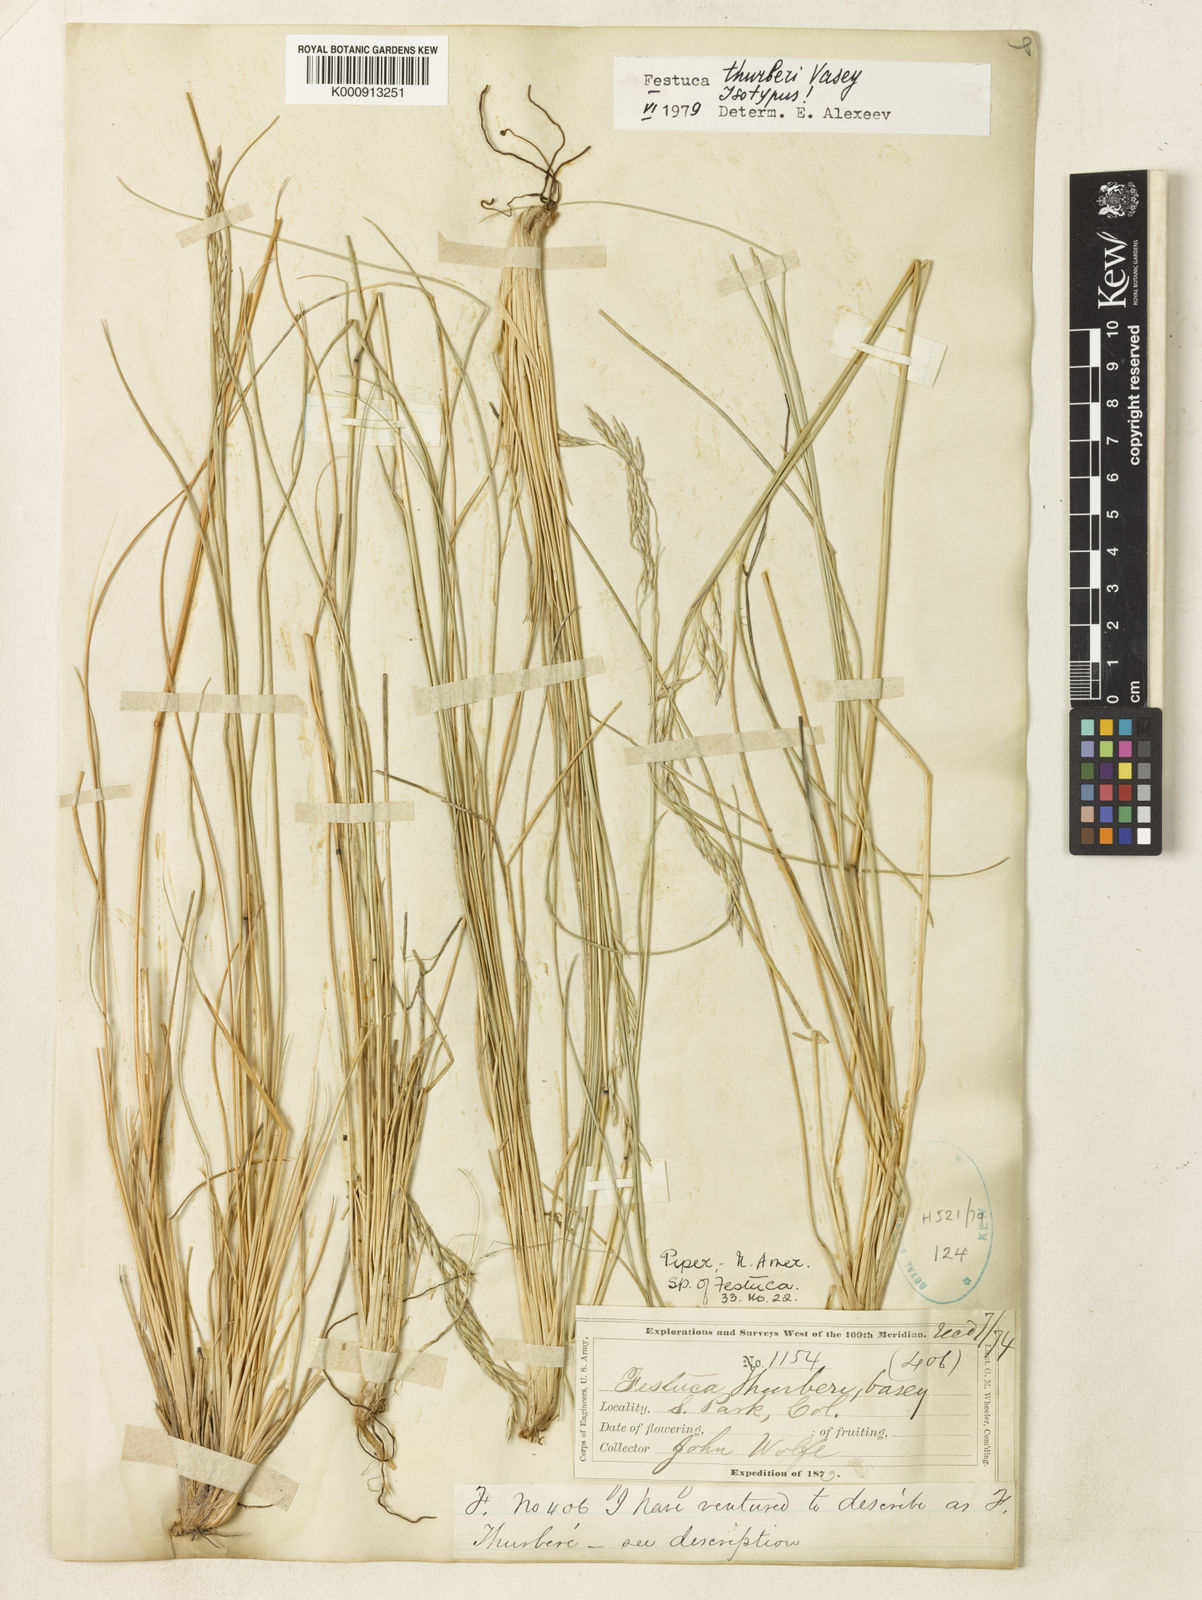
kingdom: Plantae
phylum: Tracheophyta
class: Liliopsida
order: Poales
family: Poaceae
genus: Festuca
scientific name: Festuca thurberi
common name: Thurber's fescue
